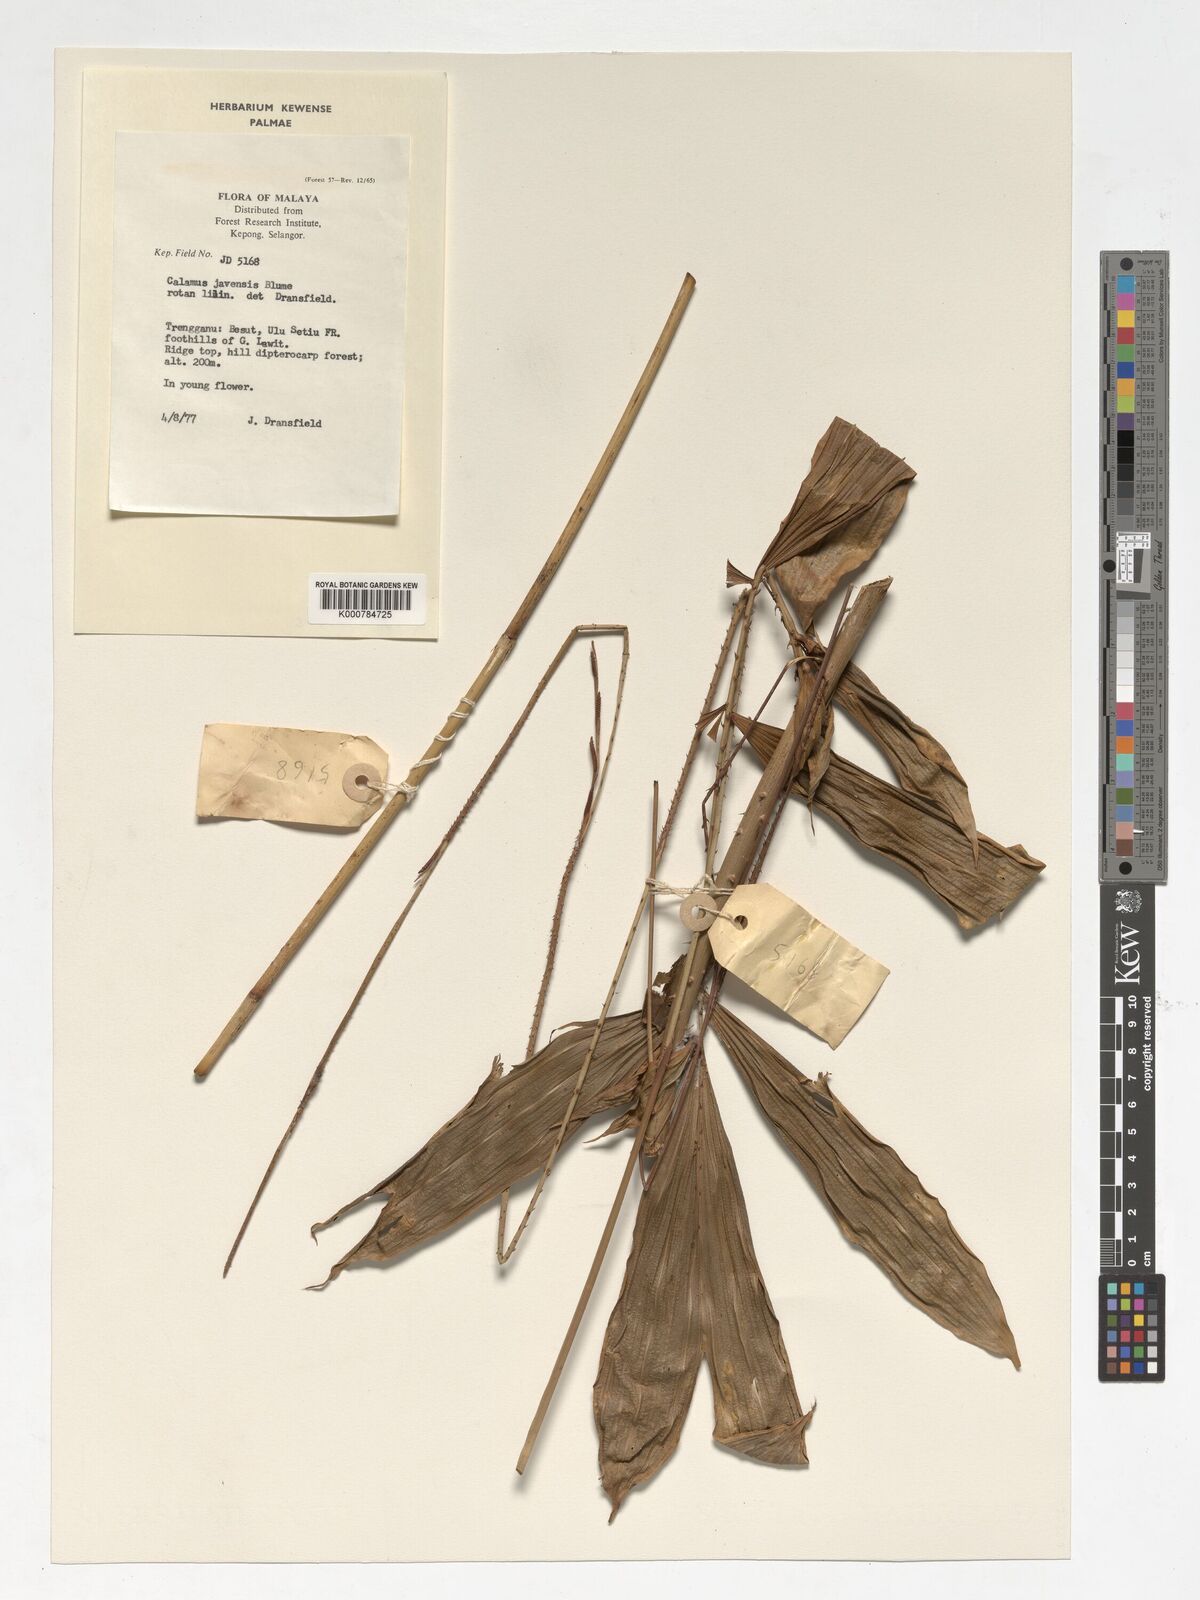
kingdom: Plantae
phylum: Tracheophyta
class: Liliopsida
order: Arecales
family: Arecaceae
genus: Calamus
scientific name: Calamus javensis
